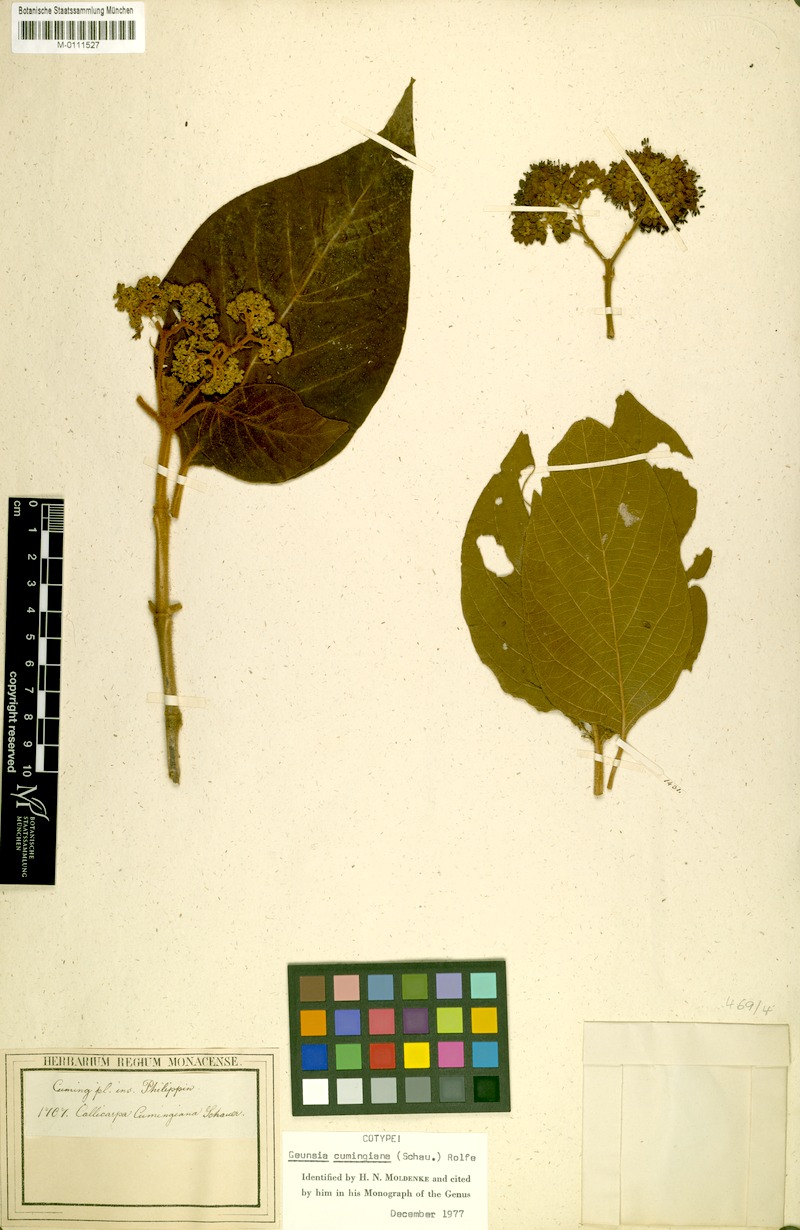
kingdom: Plantae
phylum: Tracheophyta
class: Magnoliopsida
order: Lamiales
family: Lamiaceae
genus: Callicarpa
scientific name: Callicarpa pentandra
